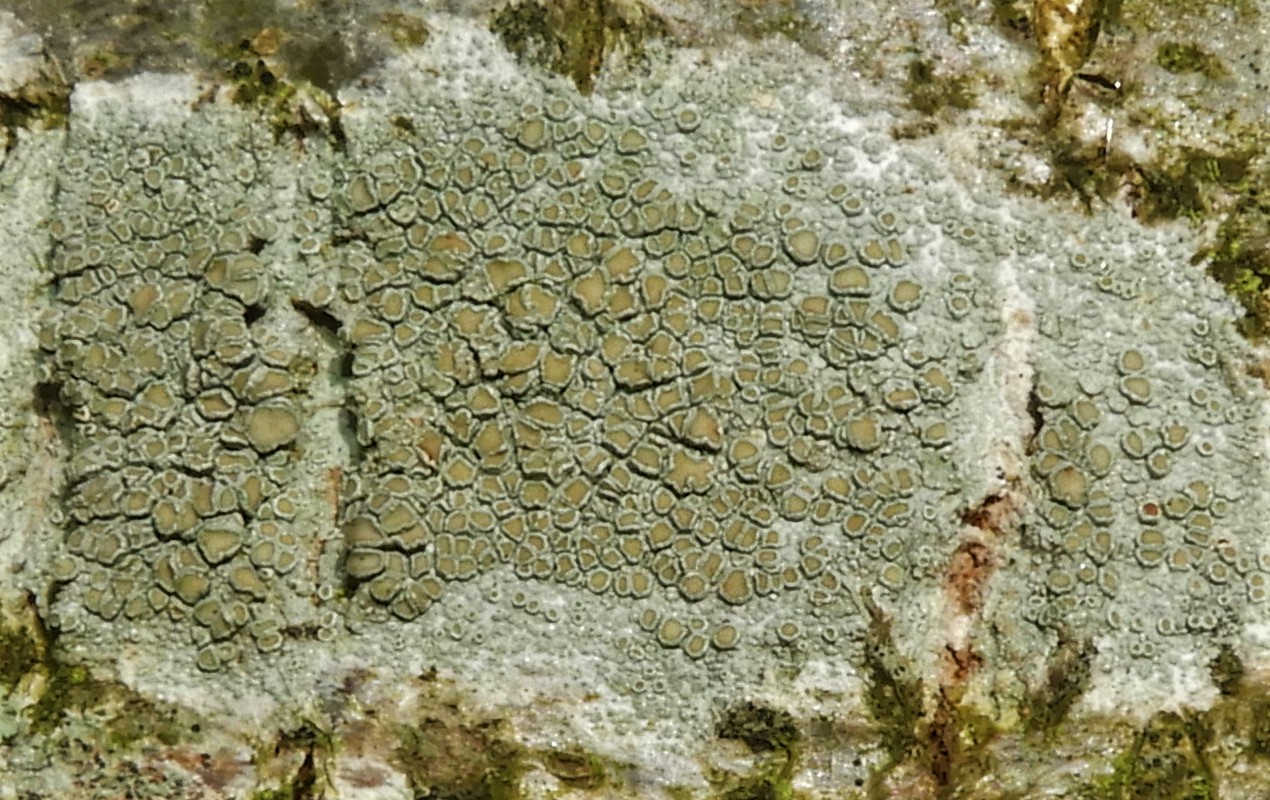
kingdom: Fungi
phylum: Ascomycota
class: Lecanoromycetes
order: Lecanorales
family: Lecanoraceae
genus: Lecanora
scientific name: Lecanora chlarotera
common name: brun kantskivelav
